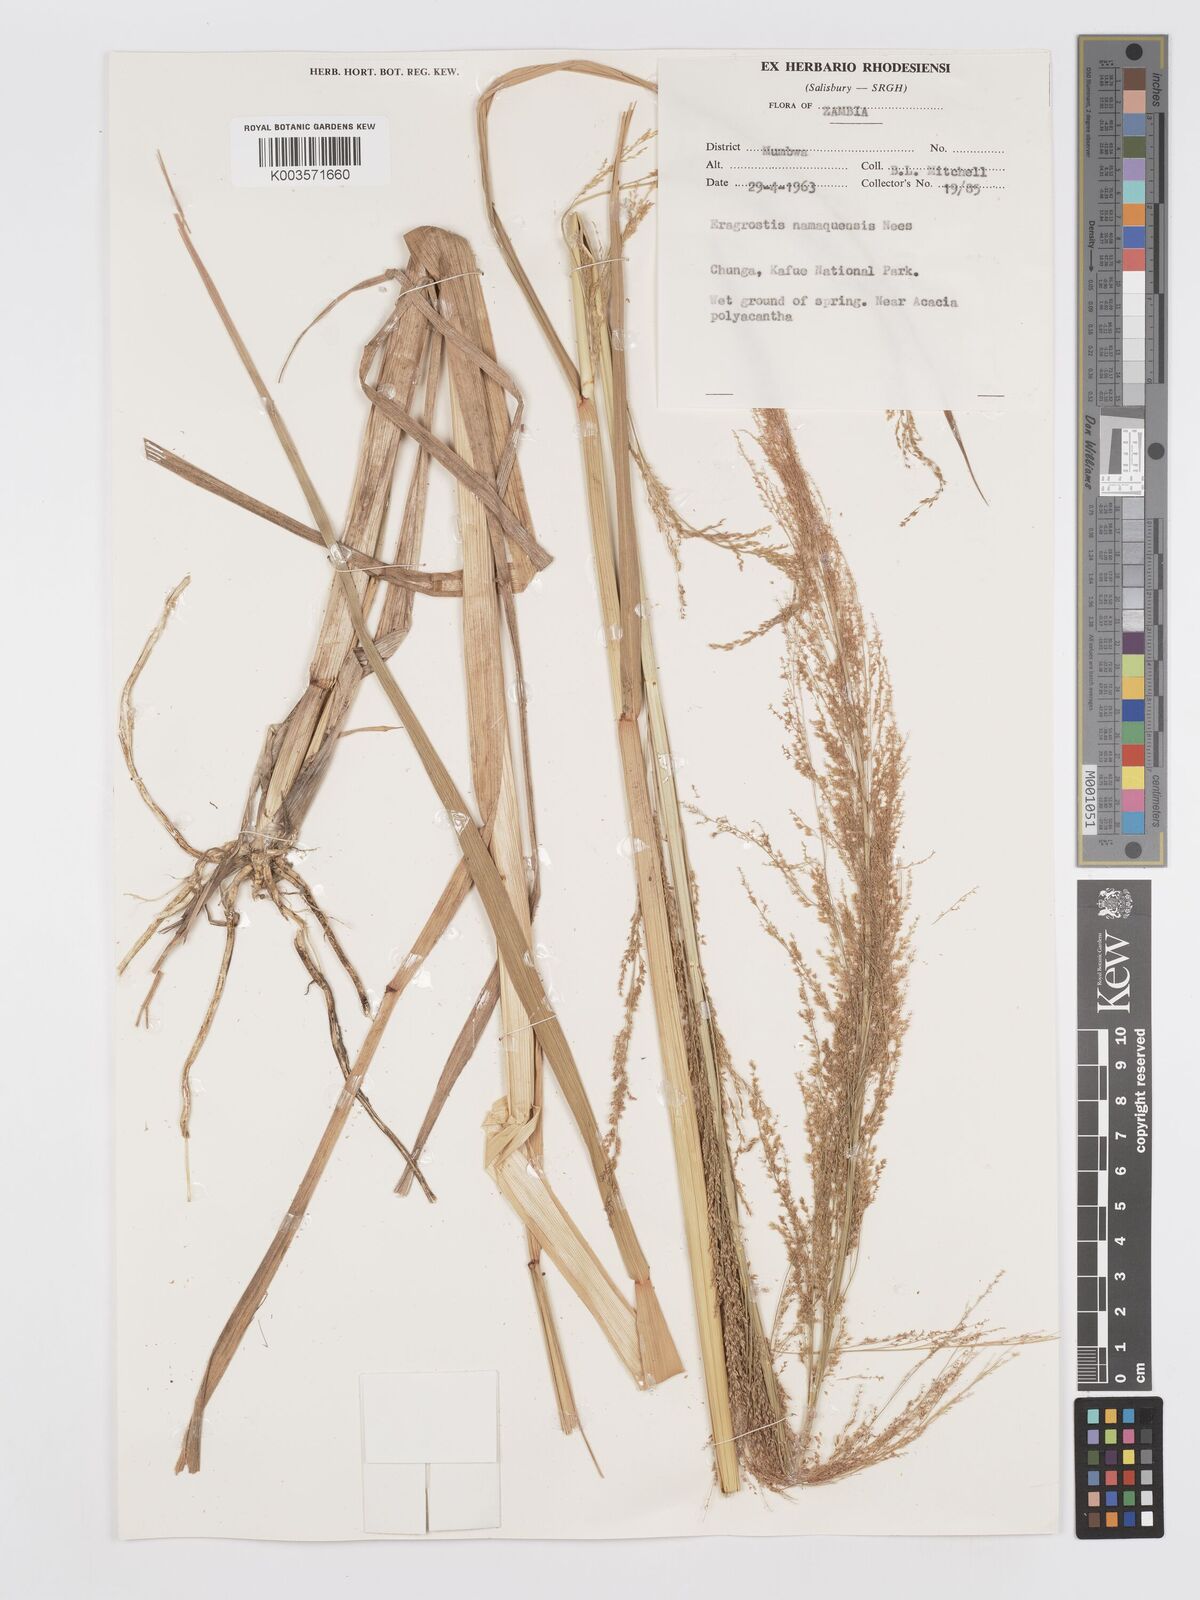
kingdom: Plantae
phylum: Tracheophyta
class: Liliopsida
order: Poales
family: Poaceae
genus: Eragrostis
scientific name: Eragrostis japonica
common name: Pond lovegrass
